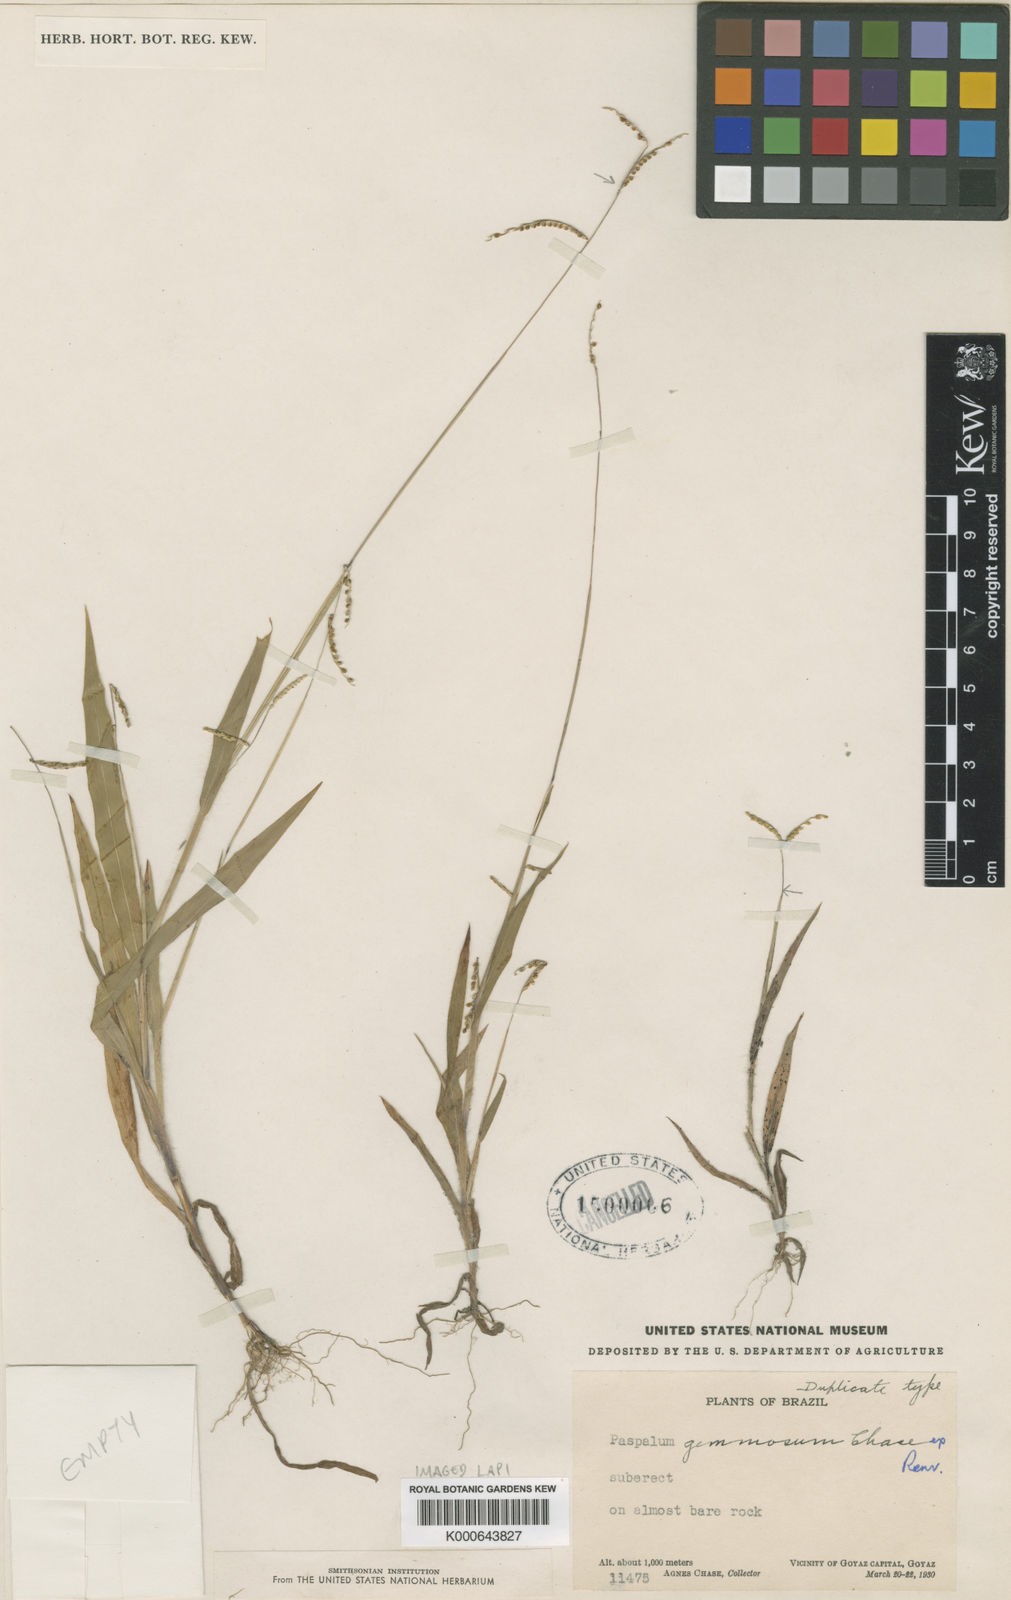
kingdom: Plantae
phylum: Tracheophyta
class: Liliopsida
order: Poales
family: Poaceae
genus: Paspalum
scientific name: Paspalum subsesquiglume
